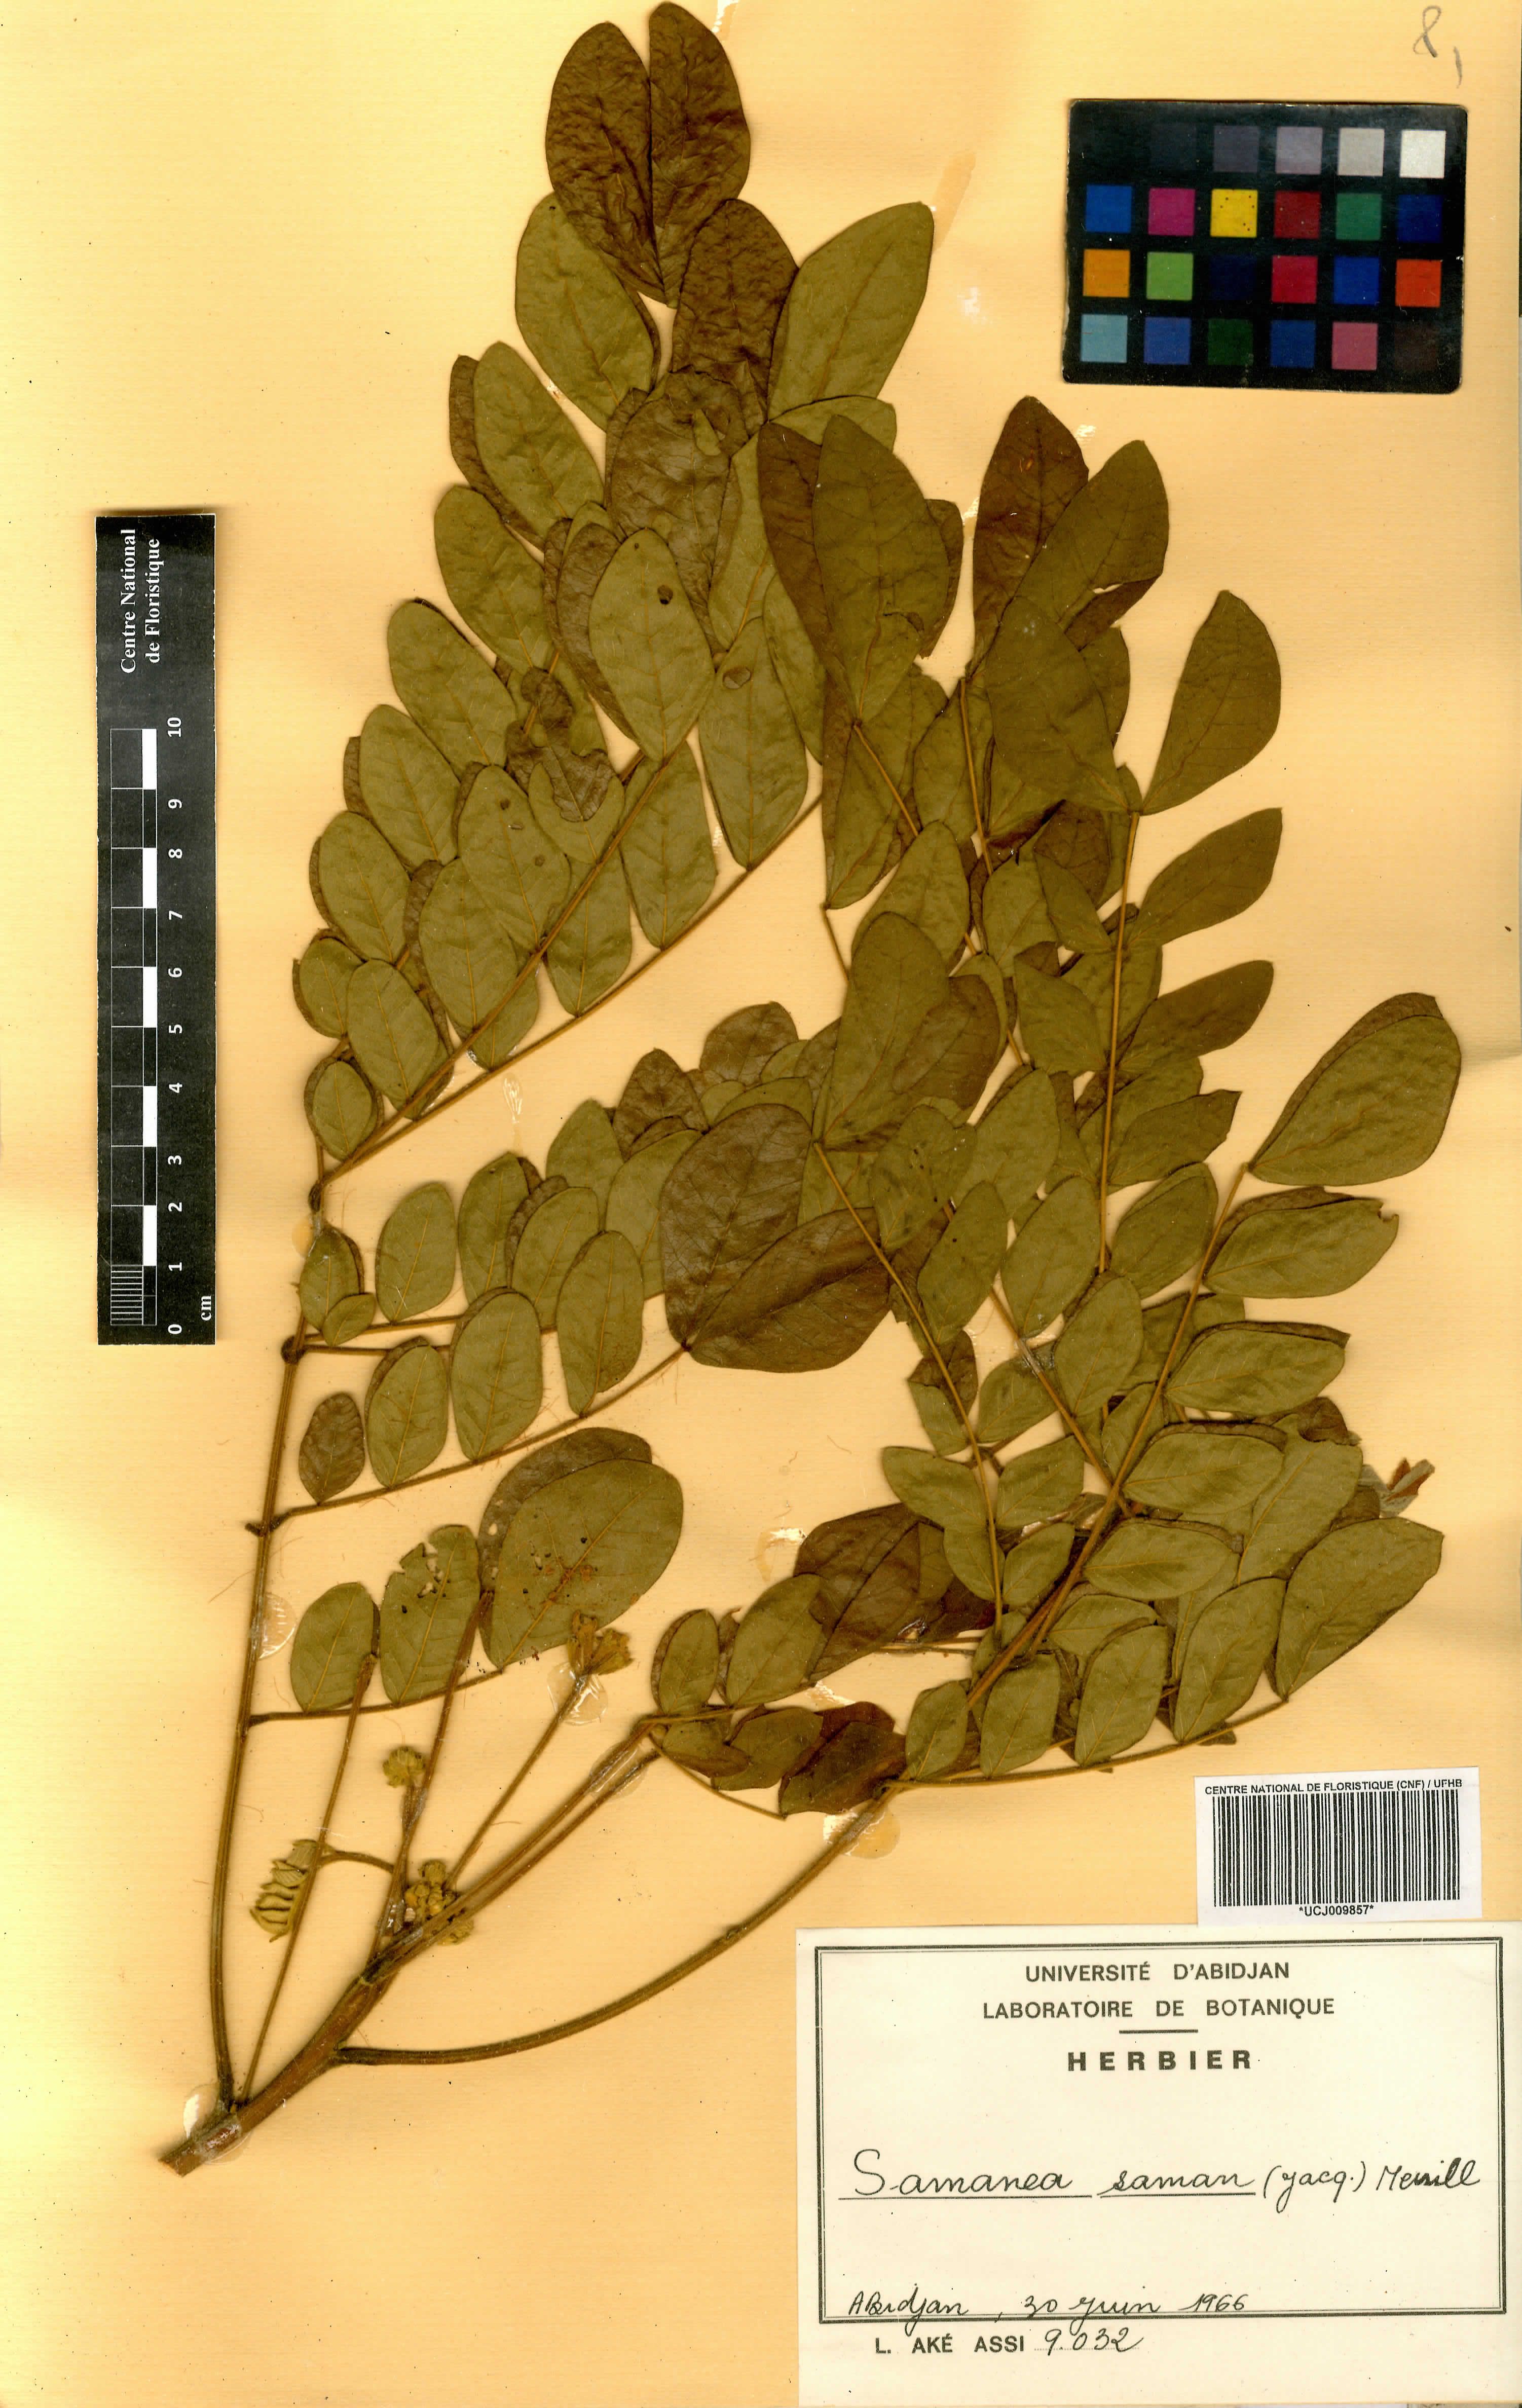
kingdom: Plantae
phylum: Tracheophyta
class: Magnoliopsida
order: Fabales
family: Fabaceae
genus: Samanea
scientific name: Samanea saman
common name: Raintree
